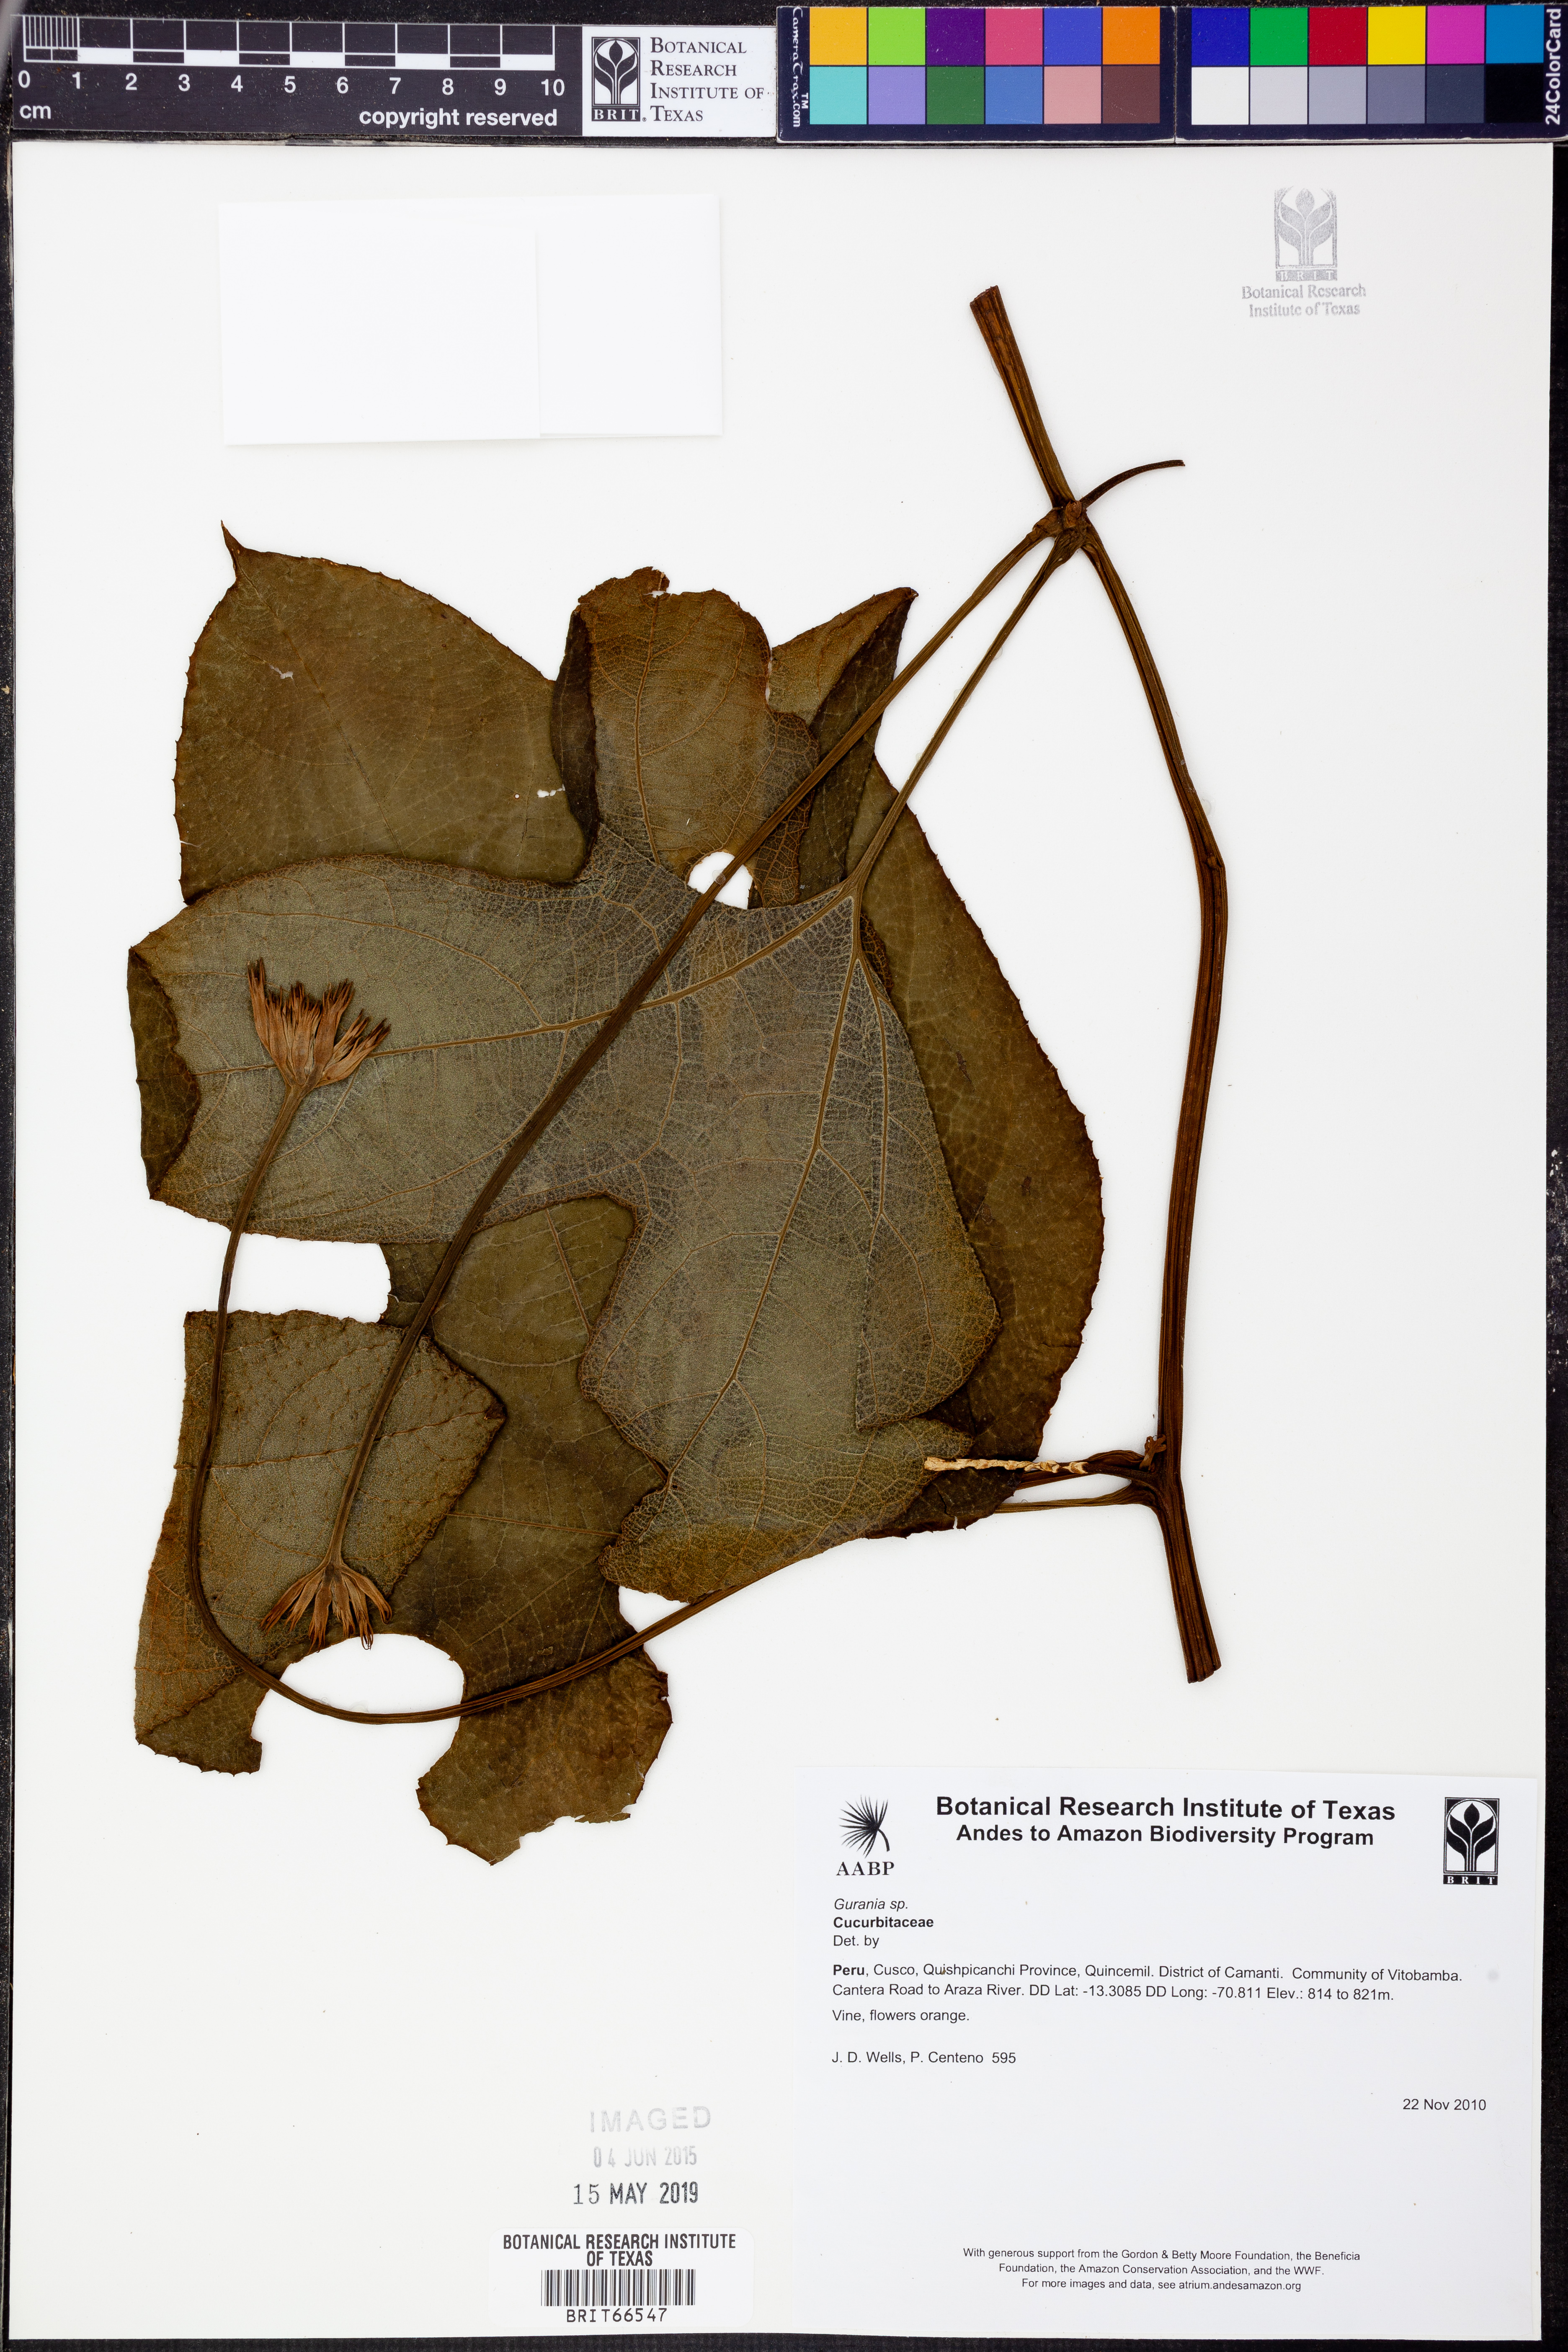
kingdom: Plantae
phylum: Tracheophyta
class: Magnoliopsida
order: Cucurbitales
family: Cucurbitaceae
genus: Gurania
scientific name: Gurania
